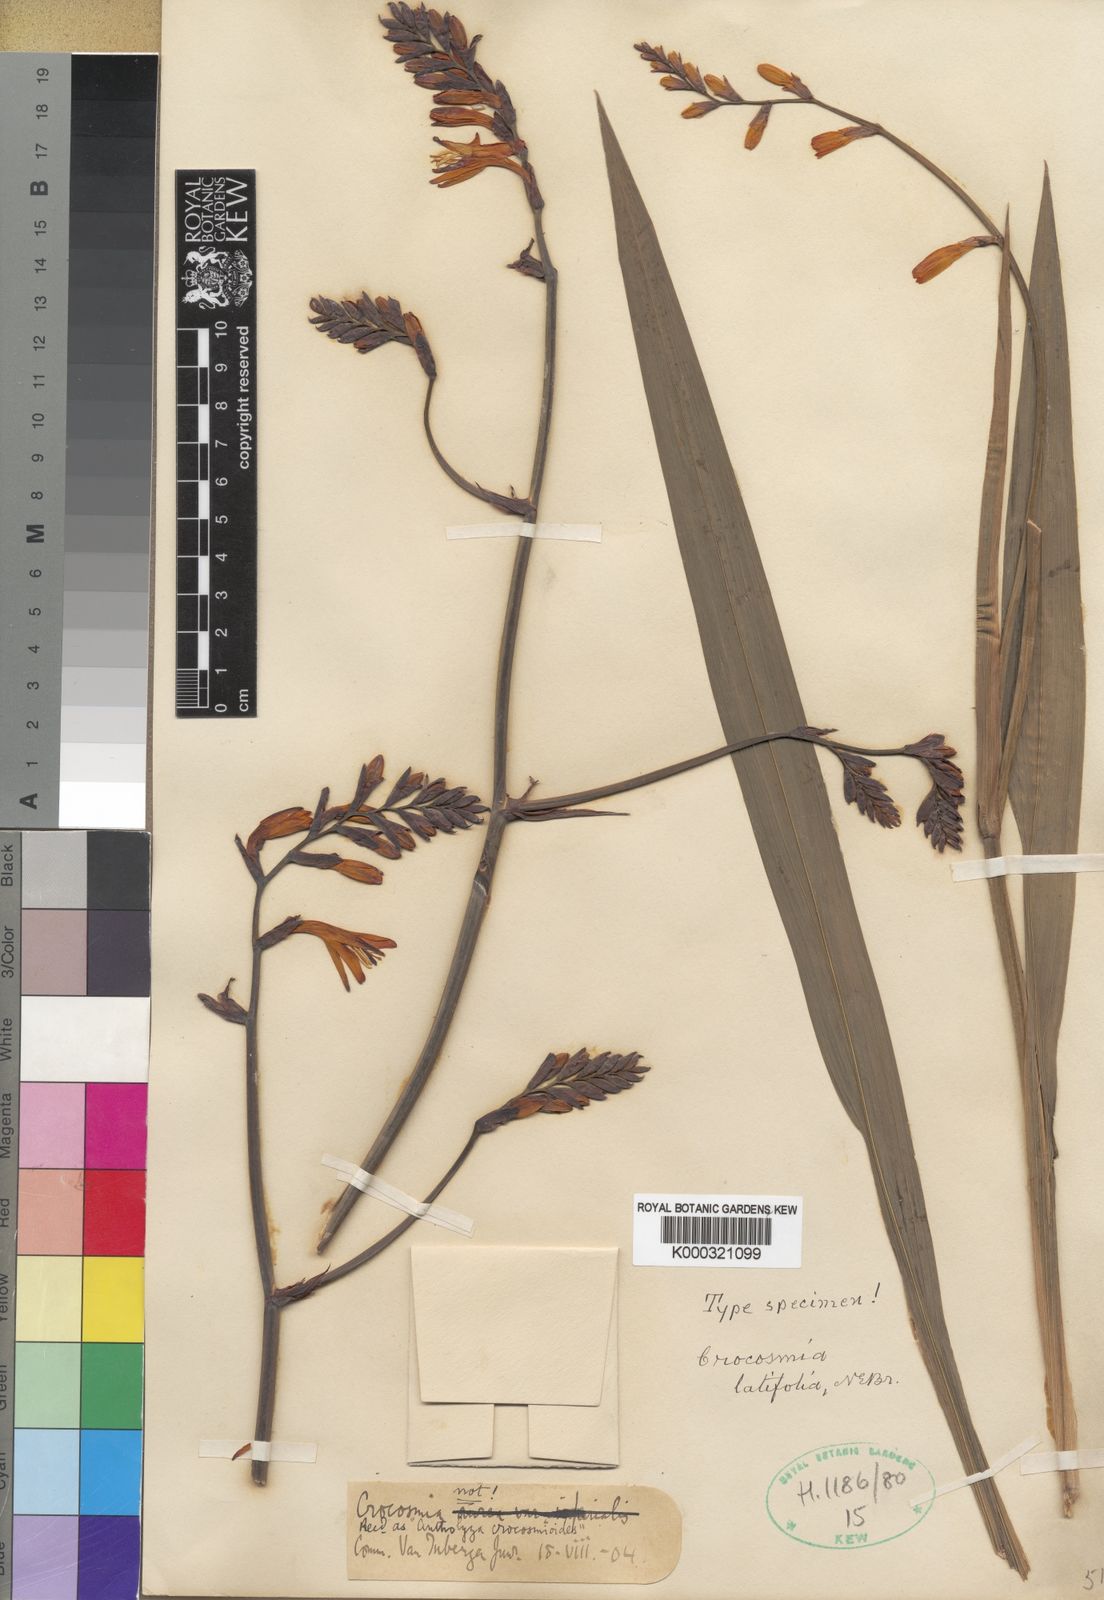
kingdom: Plantae
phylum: Tracheophyta
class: Liliopsida
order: Asparagales
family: Iridaceae
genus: Crocosmia
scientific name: Crocosmia crocosmioides
